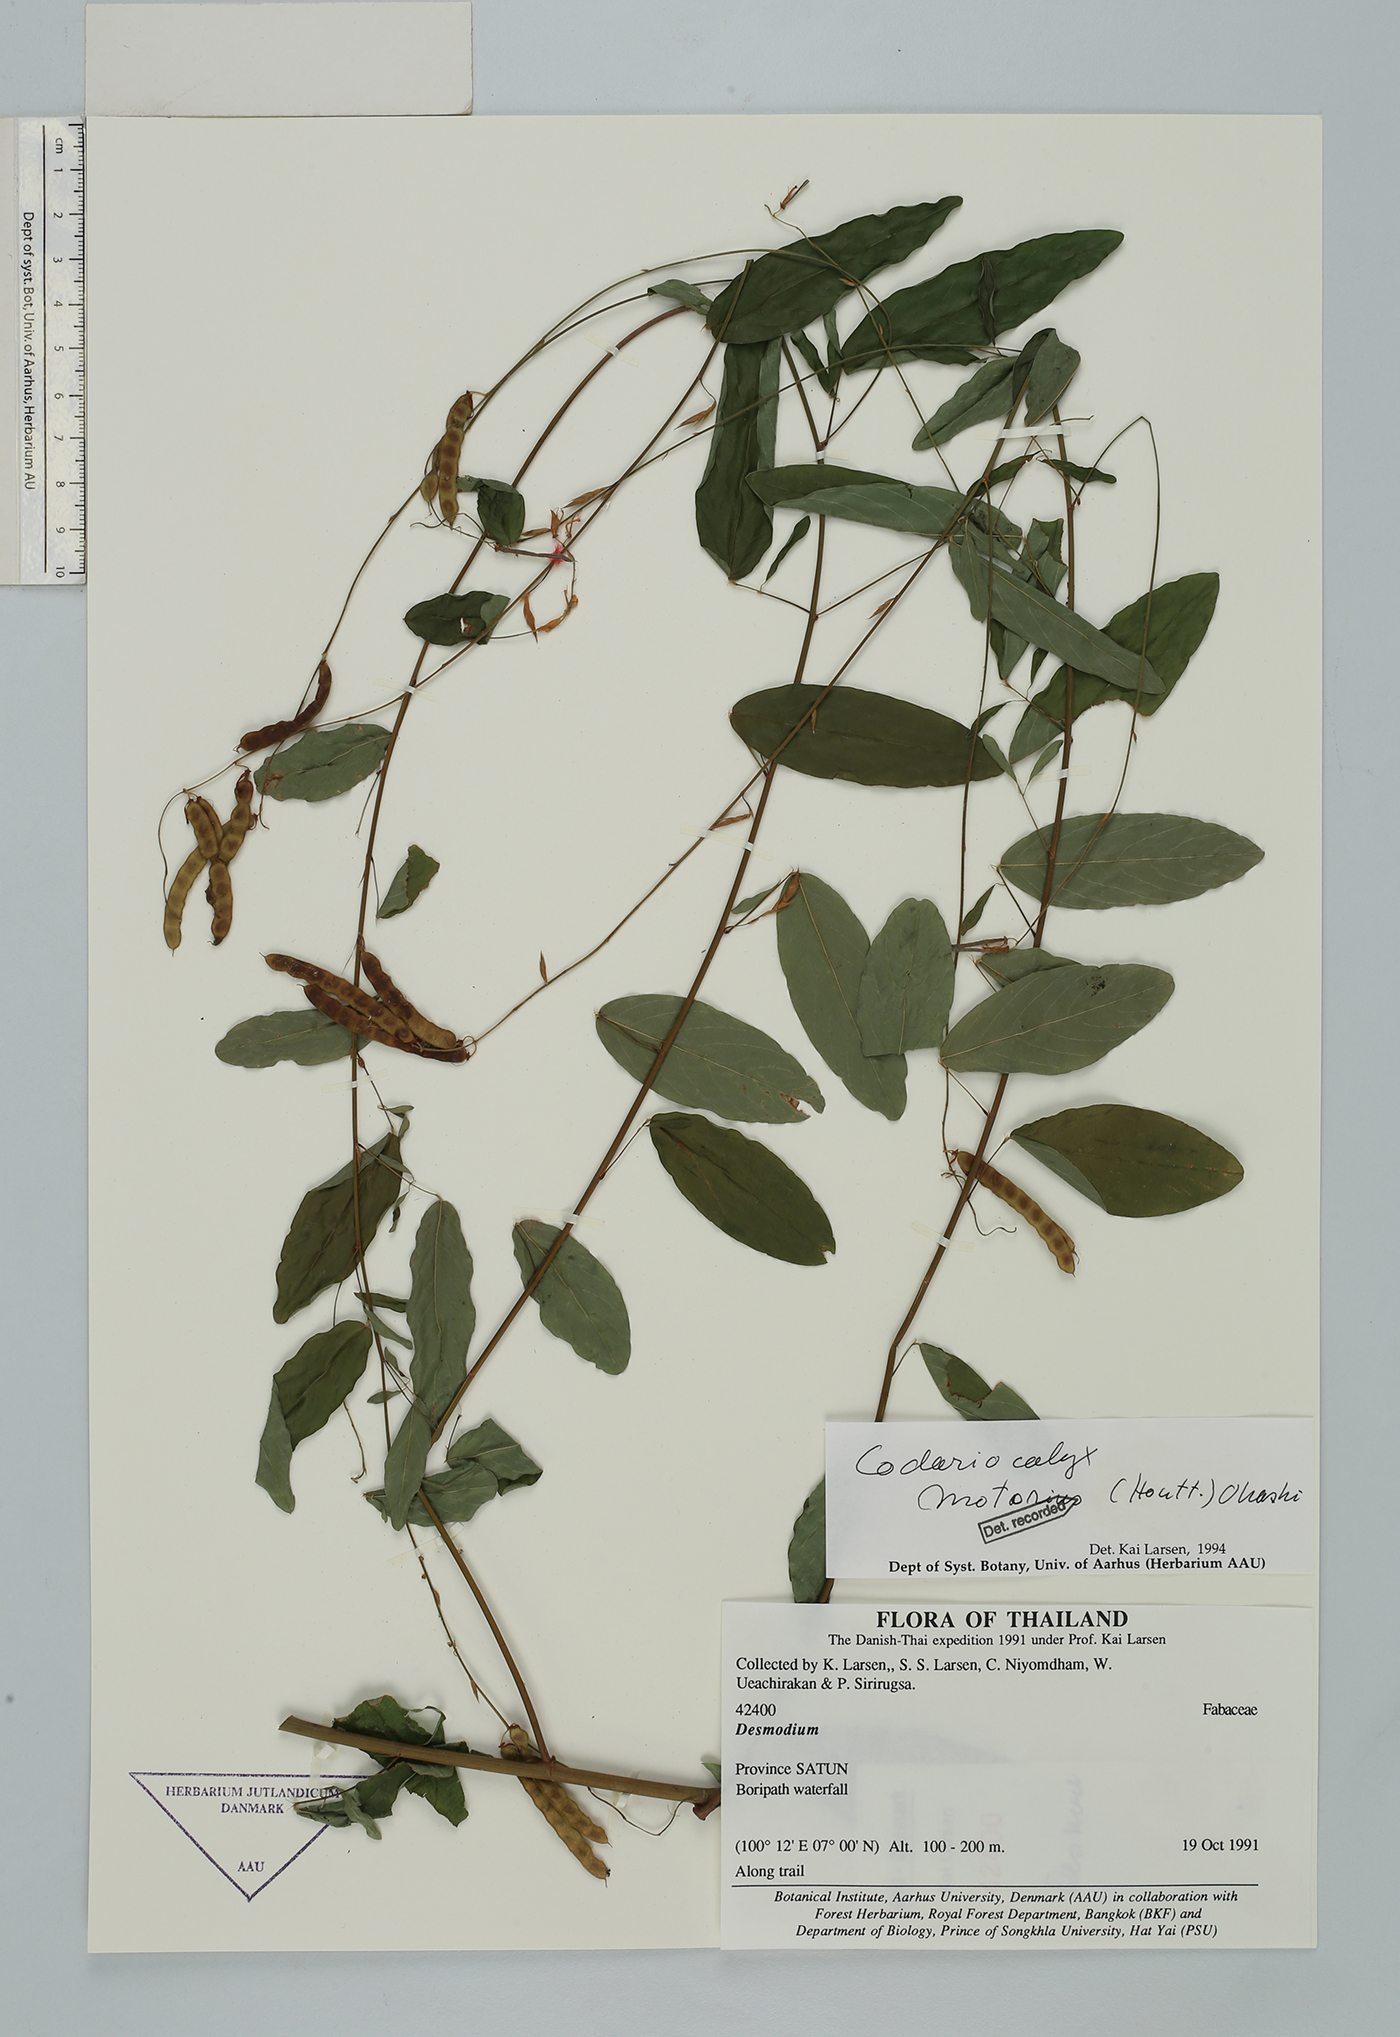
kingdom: Plantae
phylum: Tracheophyta
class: Magnoliopsida
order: Fabales
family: Fabaceae
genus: Codariocalyx
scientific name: Codariocalyx motorius
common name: Telegraph-plant
